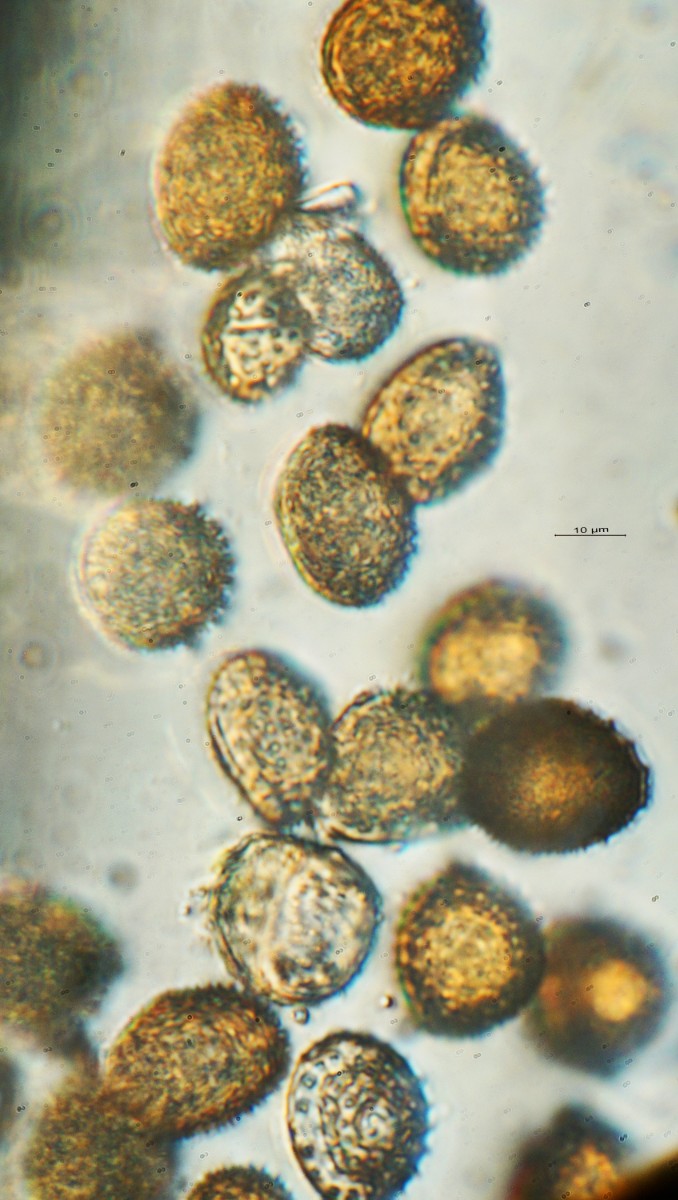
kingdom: Fungi
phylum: Basidiomycota
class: Pucciniomycetes
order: Pucciniales
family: Pucciniaceae
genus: Puccinia
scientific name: Puccinia ribesii-pendulae
